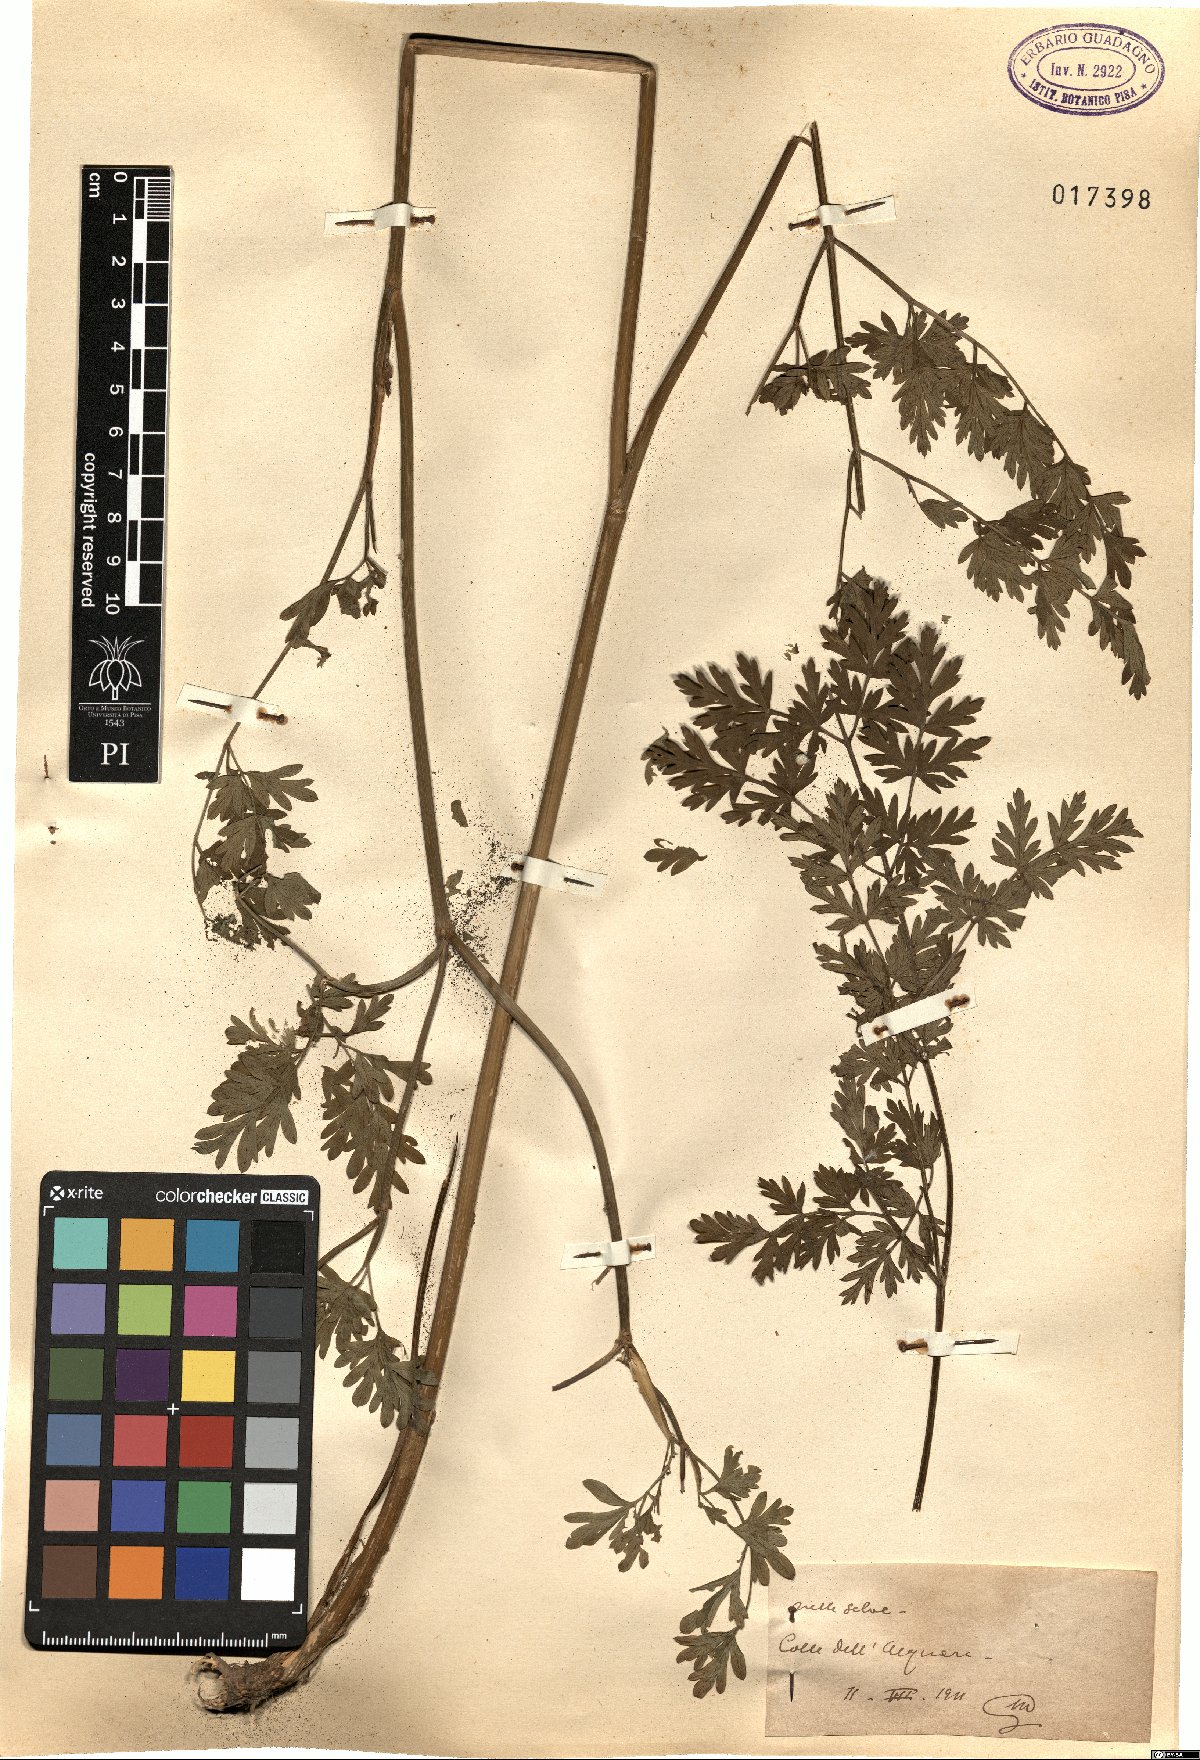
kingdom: Plantae
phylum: Tracheophyta
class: Magnoliopsida
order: Apiales
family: Apiaceae
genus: Selinum
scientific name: Selinum
